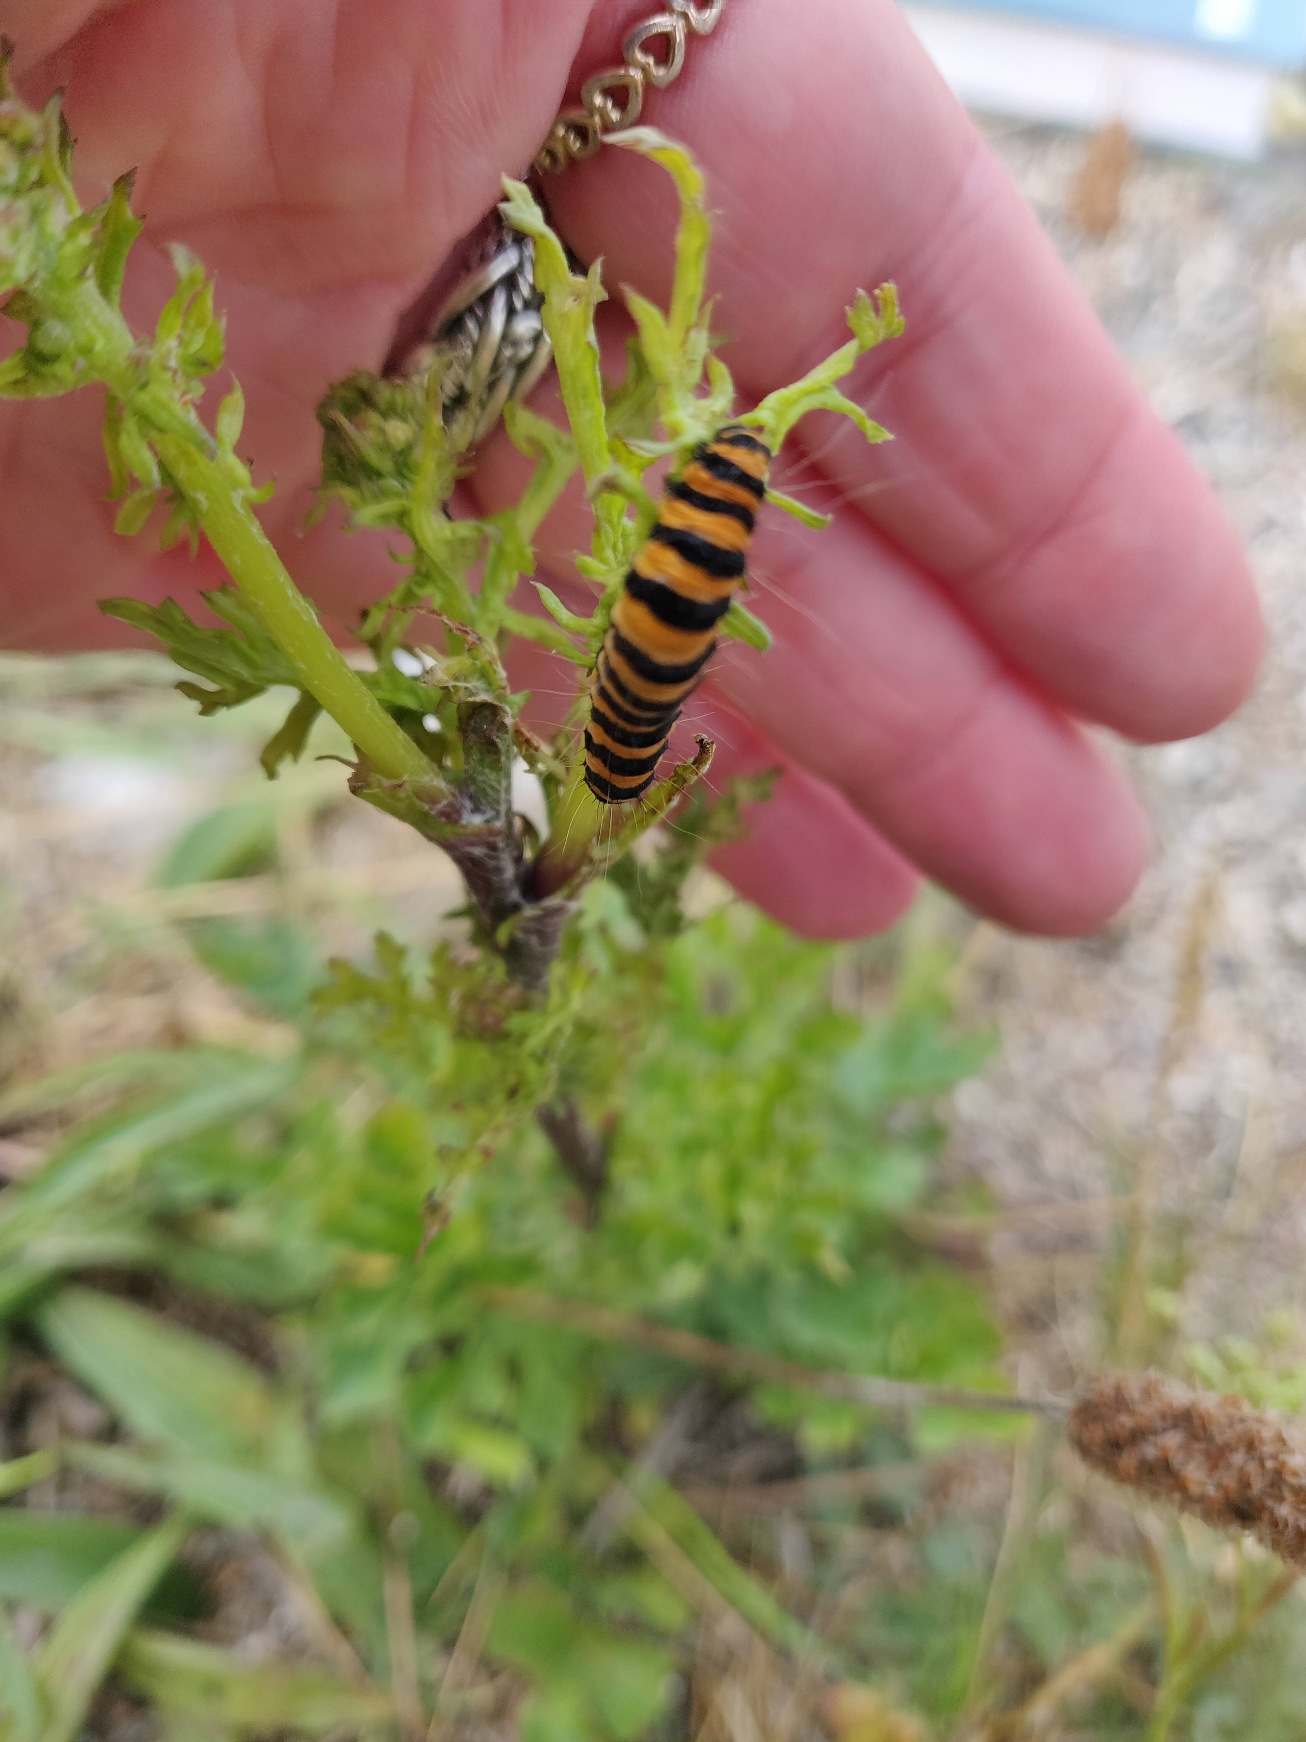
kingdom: Animalia
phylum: Arthropoda
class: Insecta
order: Lepidoptera
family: Erebidae
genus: Tyria
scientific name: Tyria jacobaeae
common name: Blodplet
